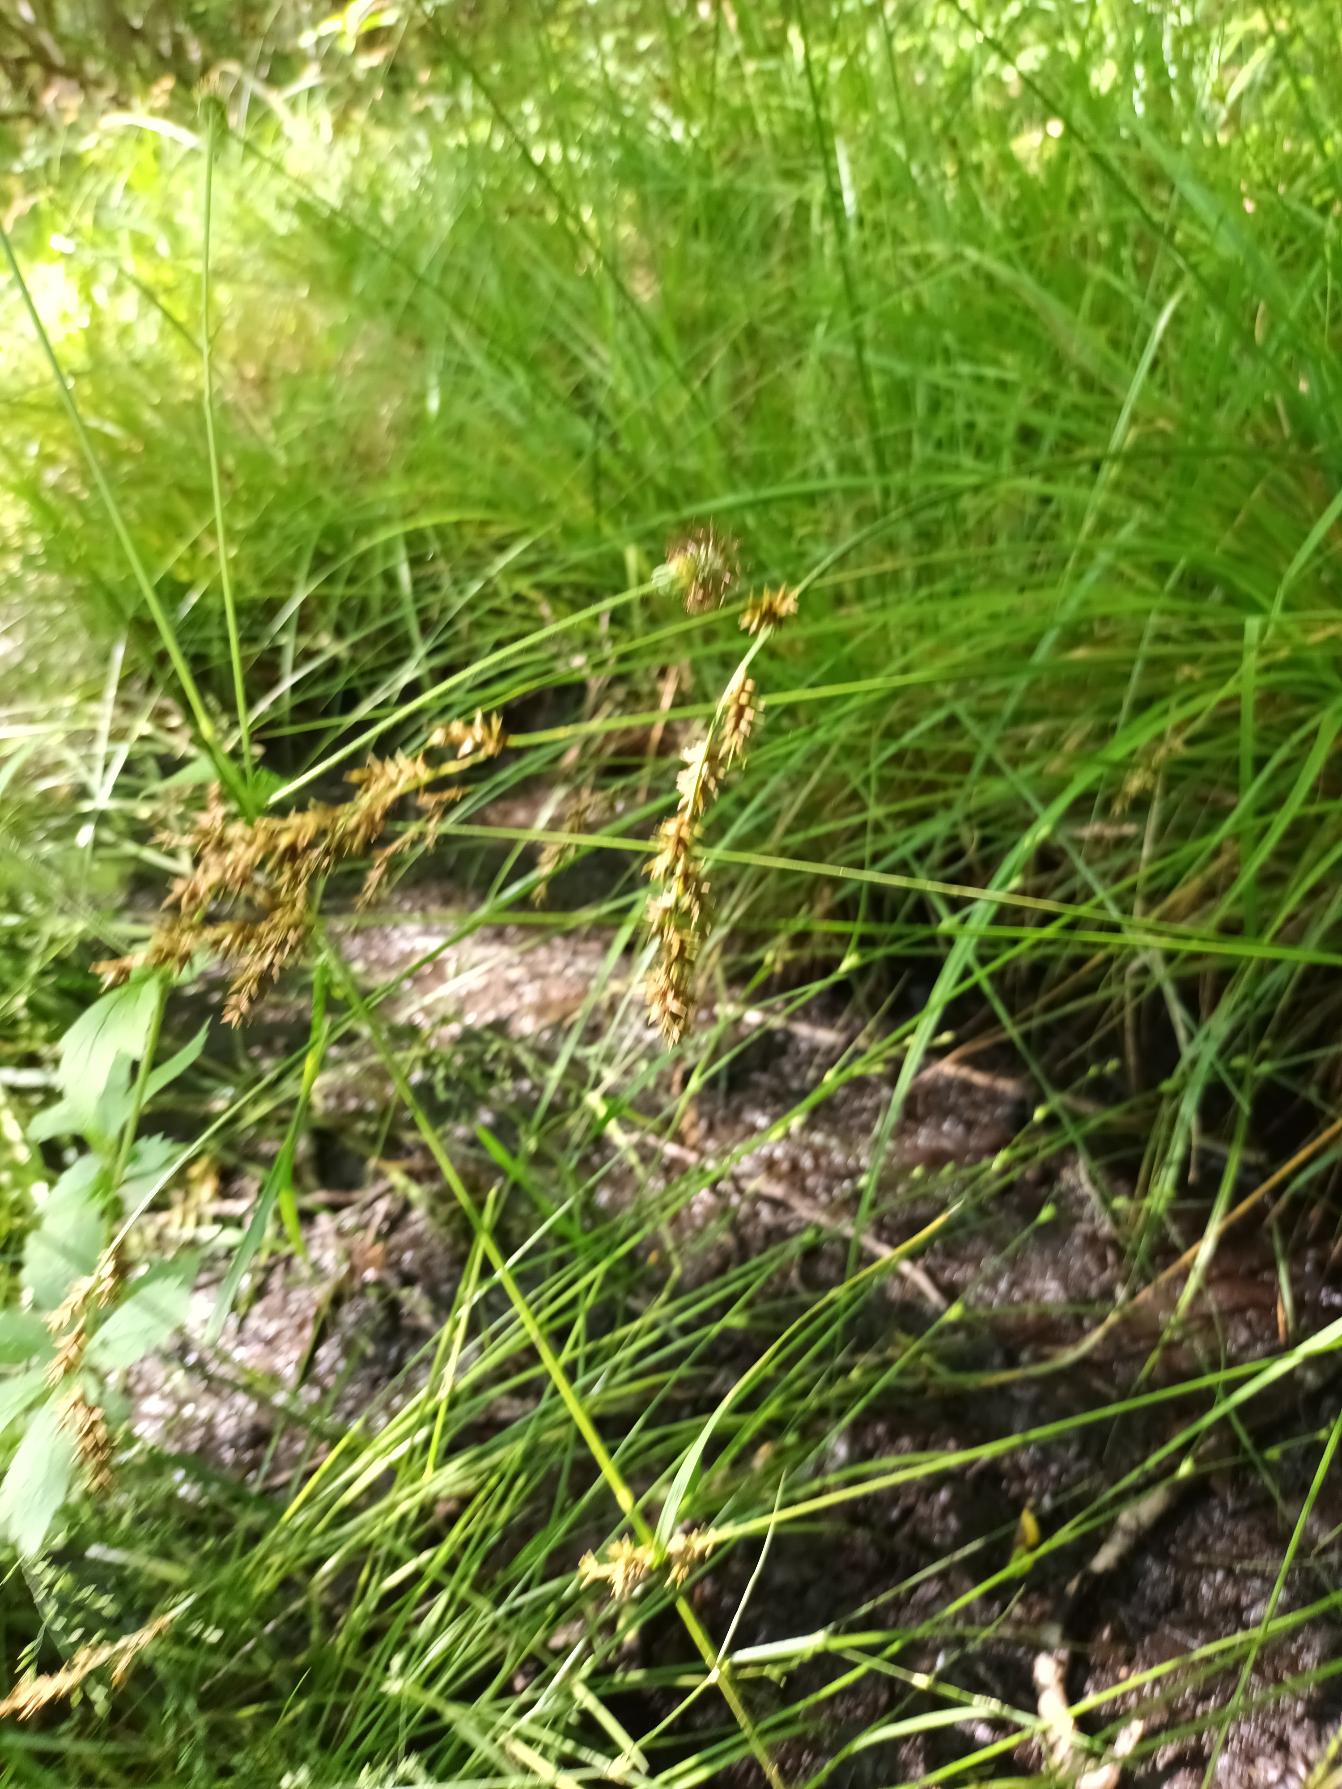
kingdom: Plantae
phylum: Tracheophyta
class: Liliopsida
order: Poales
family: Cyperaceae
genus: Carex
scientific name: Carex elongata
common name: Forlænget star
